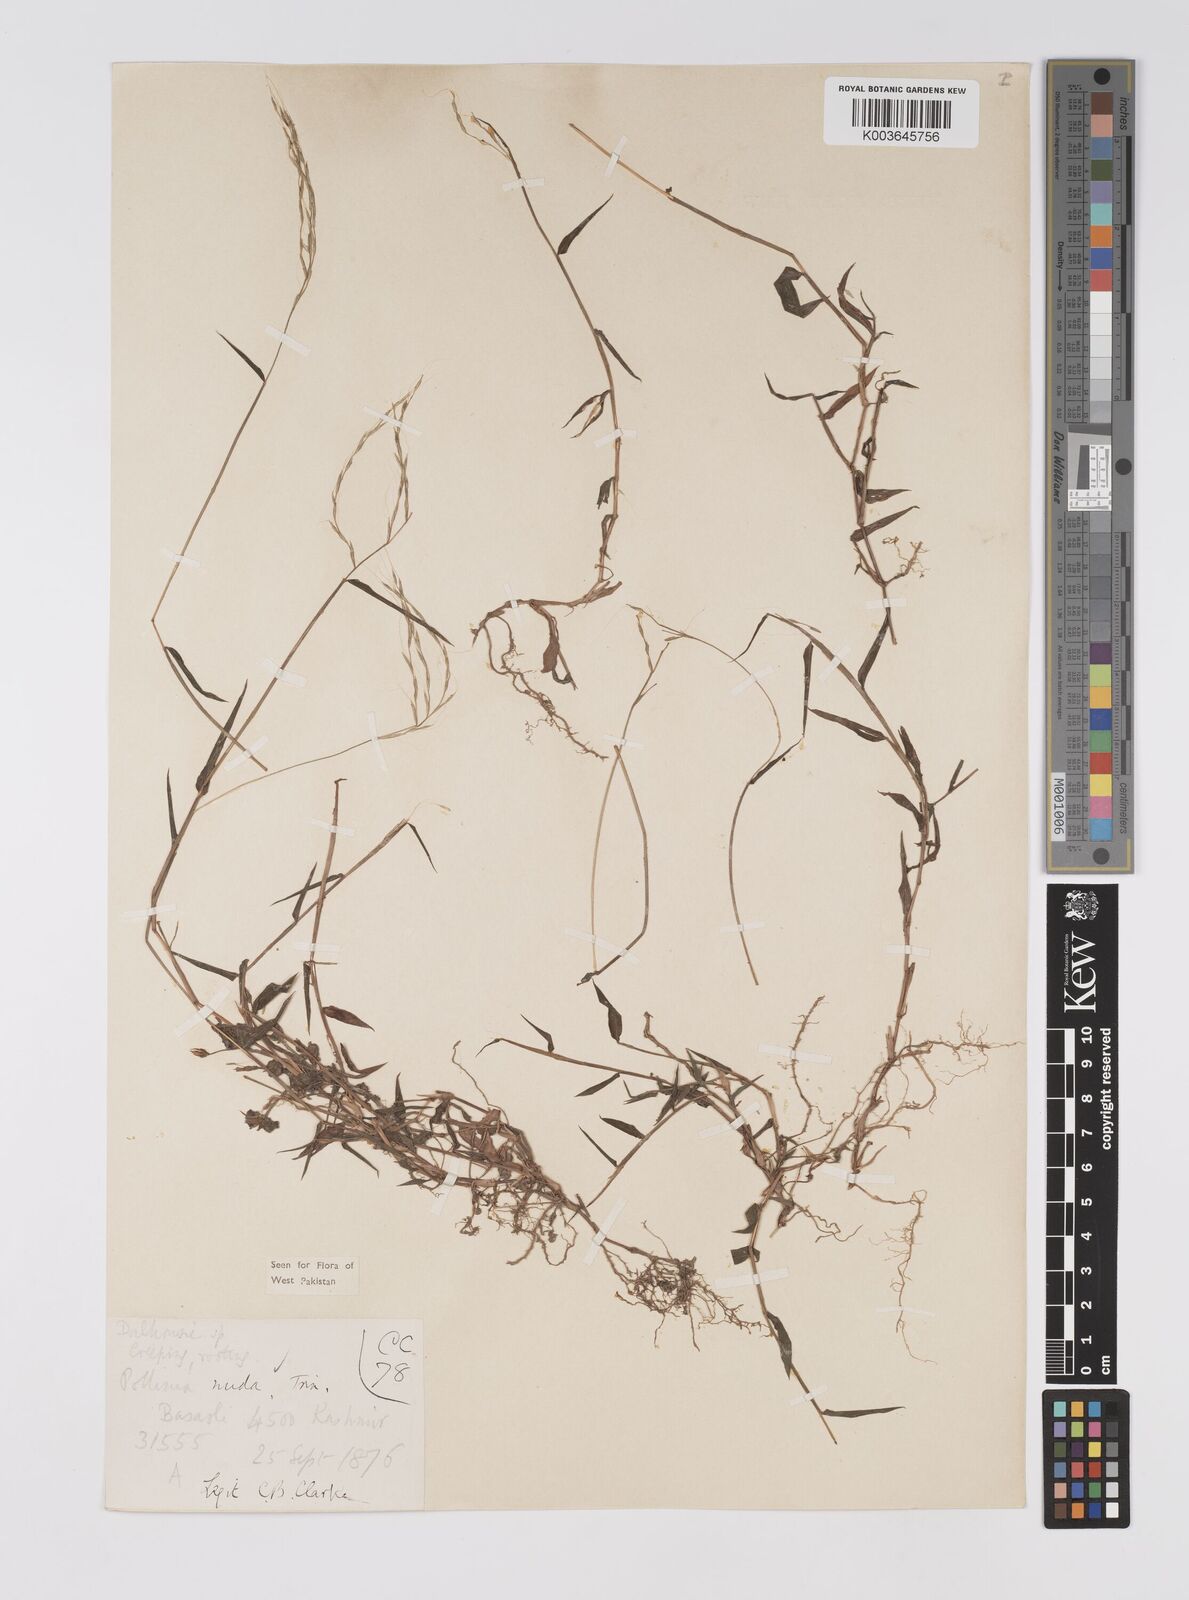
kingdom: Plantae
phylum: Tracheophyta
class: Liliopsida
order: Poales
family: Poaceae
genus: Microstegium
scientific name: Microstegium nudum
